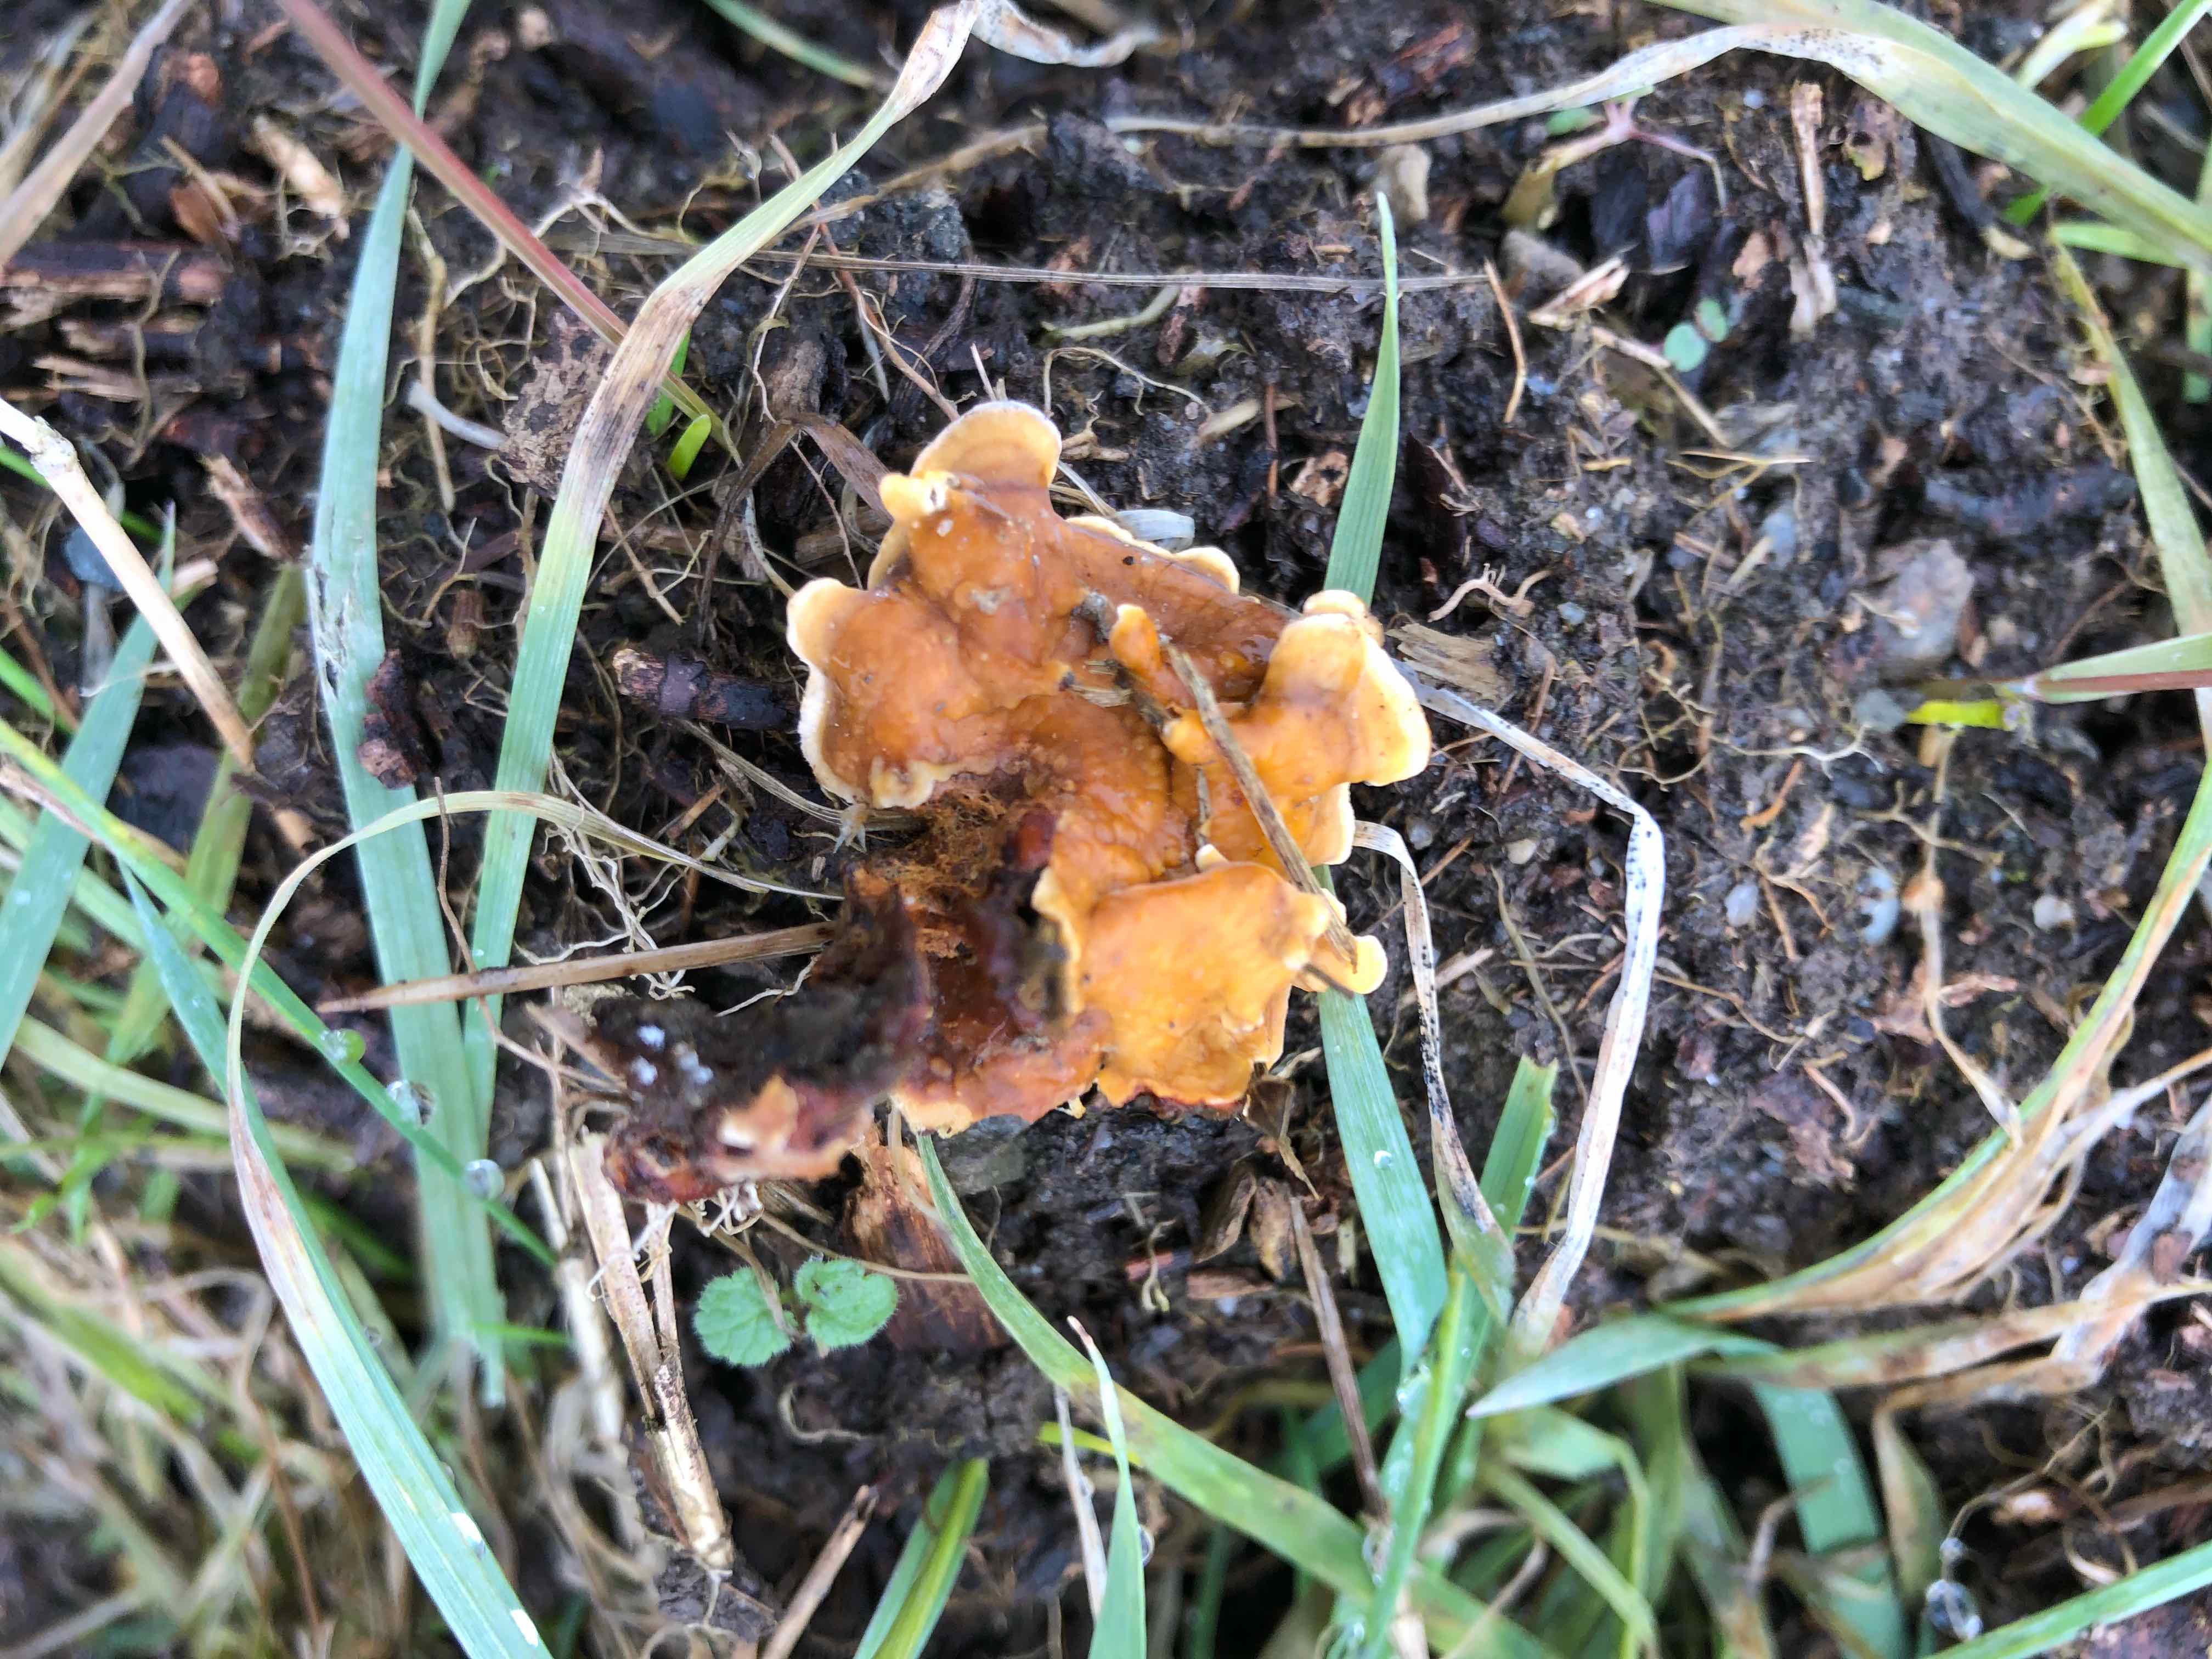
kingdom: Fungi
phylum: Basidiomycota
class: Agaricomycetes
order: Russulales
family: Stereaceae
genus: Stereum
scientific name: Stereum hirsutum
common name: håret lædersvamp
